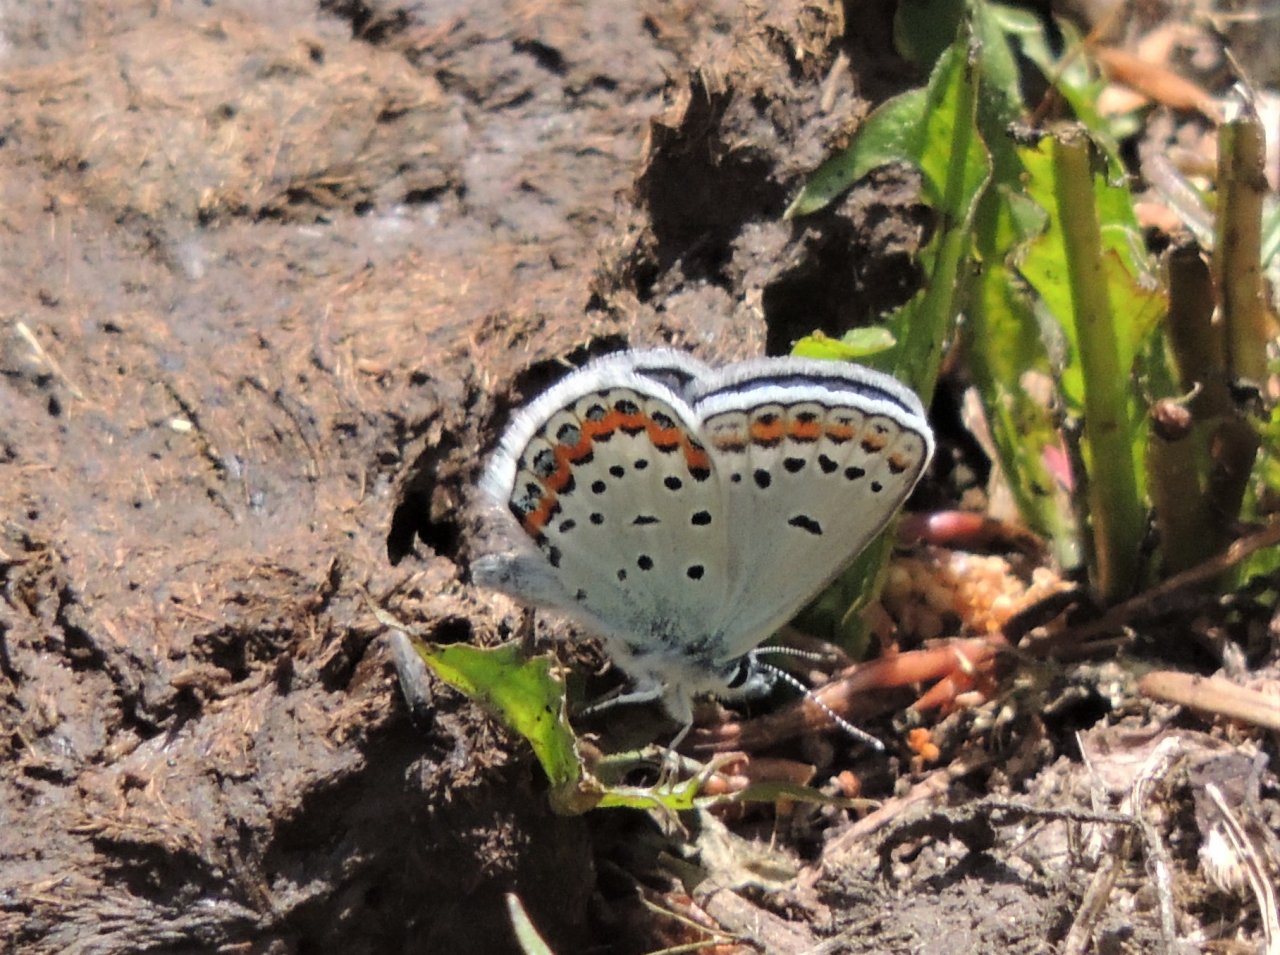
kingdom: Animalia
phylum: Arthropoda
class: Insecta
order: Lepidoptera
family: Lycaenidae
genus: Lycaeides
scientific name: Lycaeides melissa
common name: Melissa Blue
